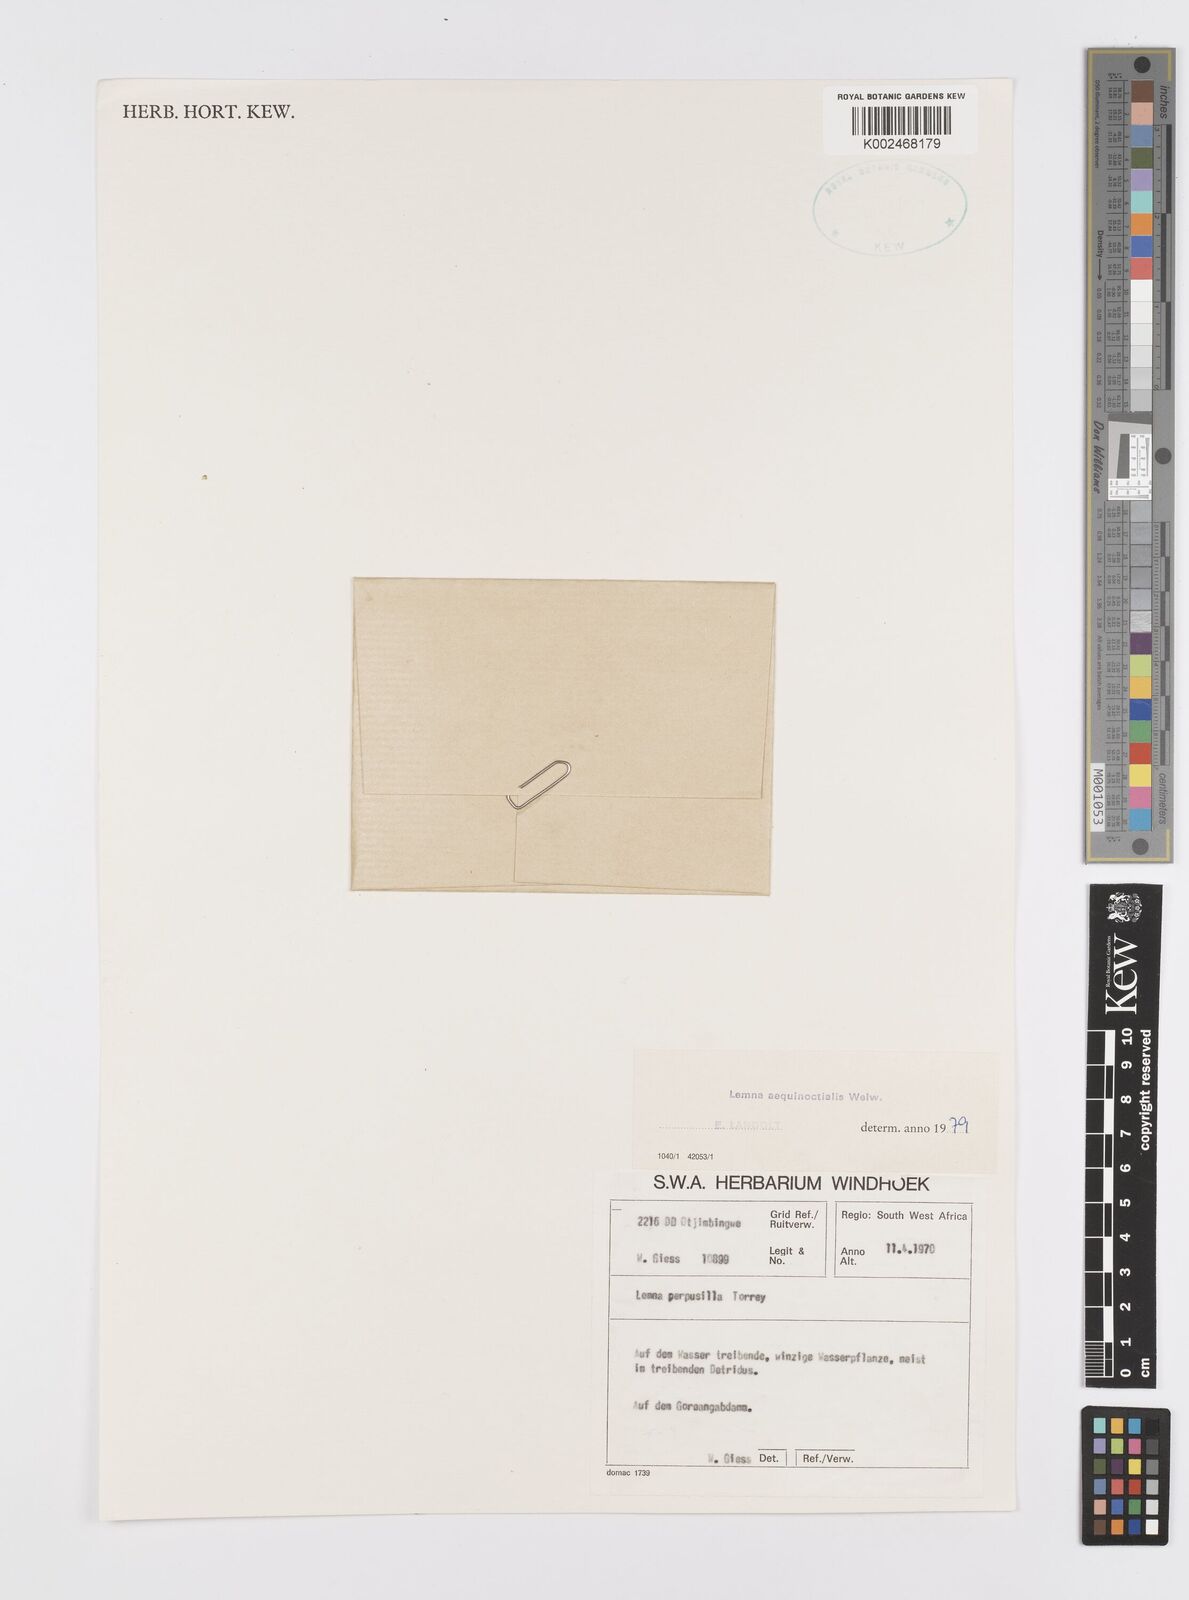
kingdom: Plantae
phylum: Tracheophyta
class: Liliopsida
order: Alismatales
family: Araceae
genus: Lemna
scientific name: Lemna aequinoctialis
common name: Duckweed
